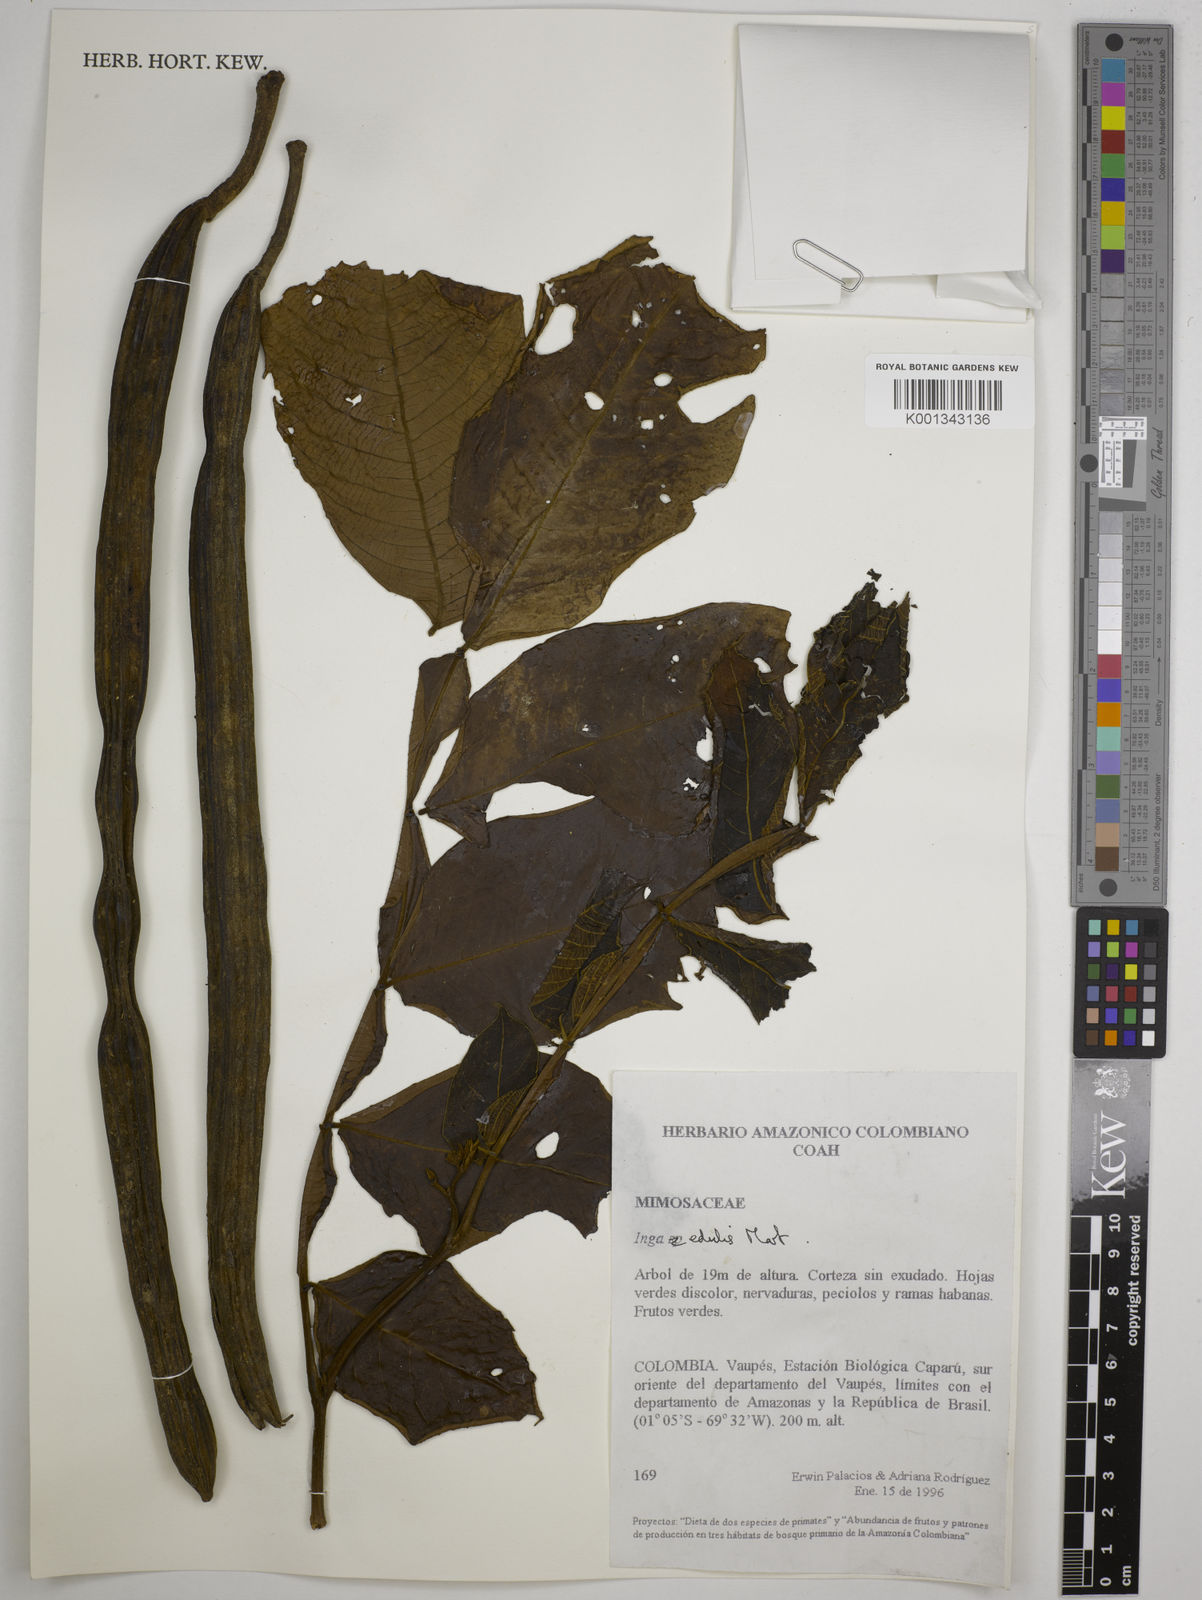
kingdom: Plantae
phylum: Tracheophyta
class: Magnoliopsida
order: Fabales
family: Fabaceae
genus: Inga
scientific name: Inga edulis
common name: Ice cream bean
